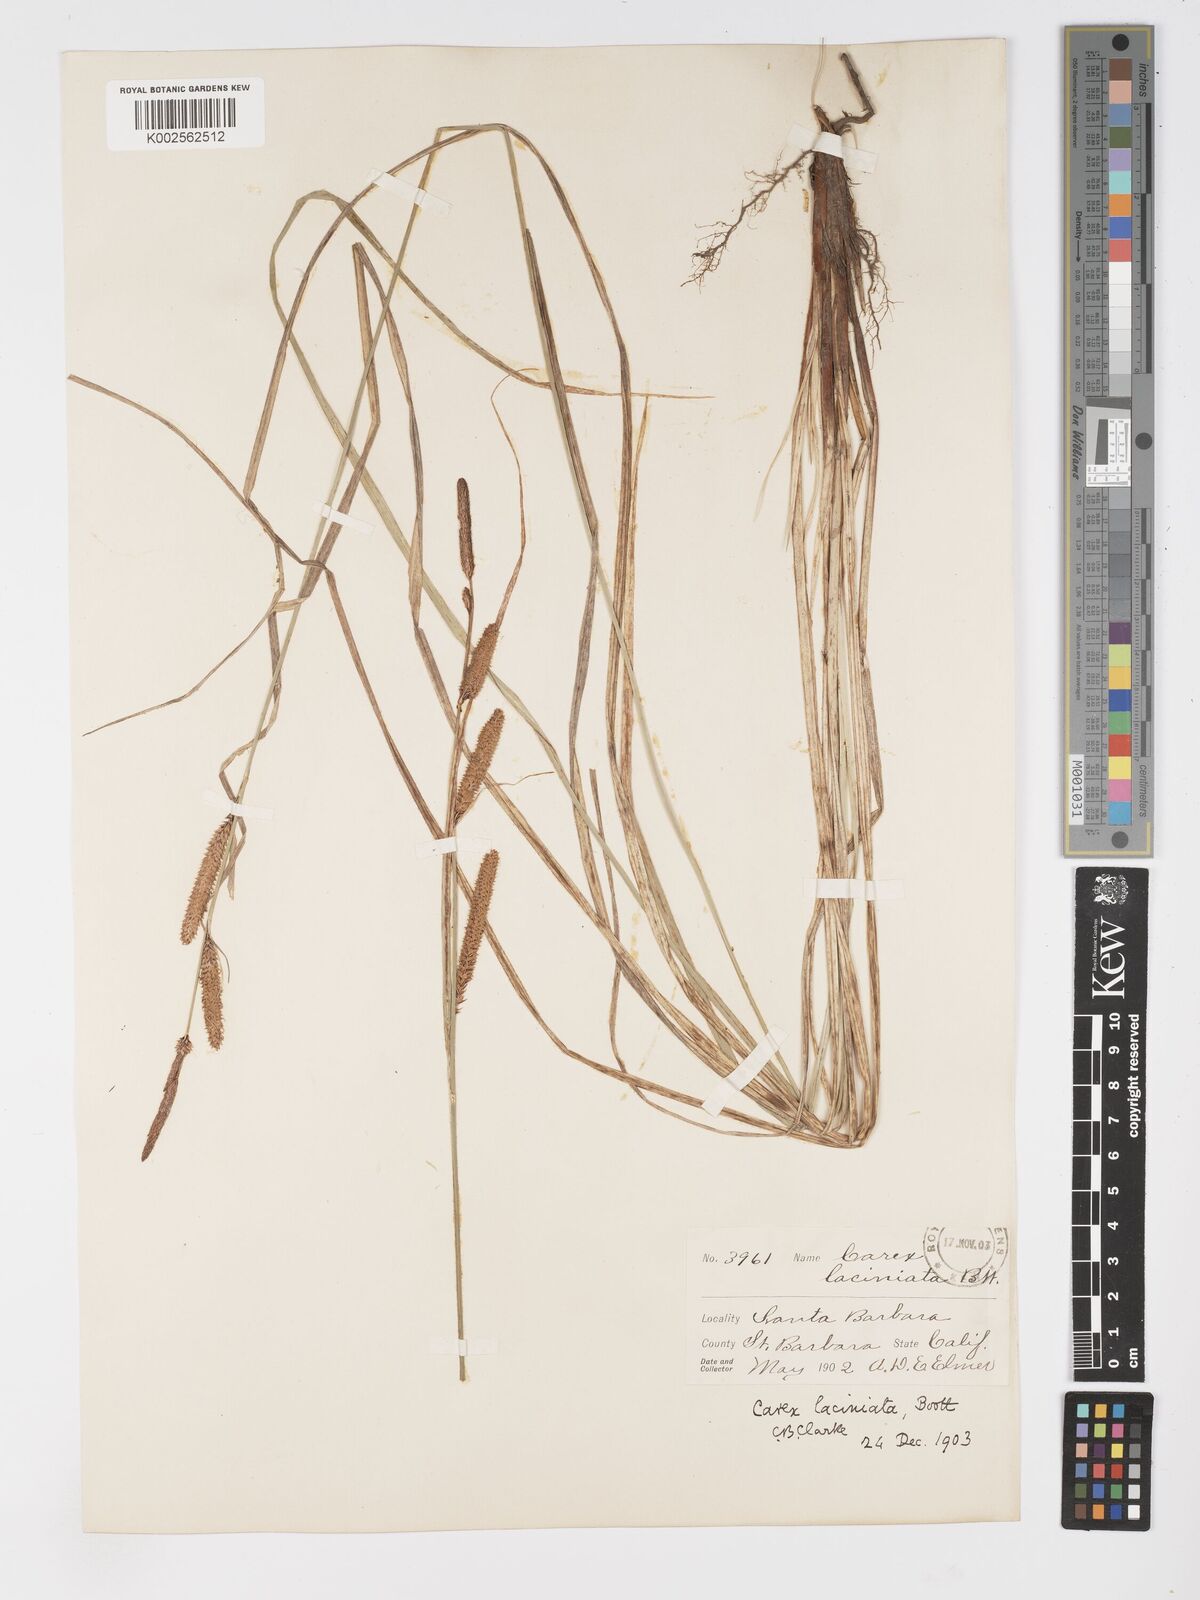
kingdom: Plantae
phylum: Tracheophyta
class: Liliopsida
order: Poales
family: Cyperaceae
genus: Carex
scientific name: Carex barbarae
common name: Santa barbara sedge
